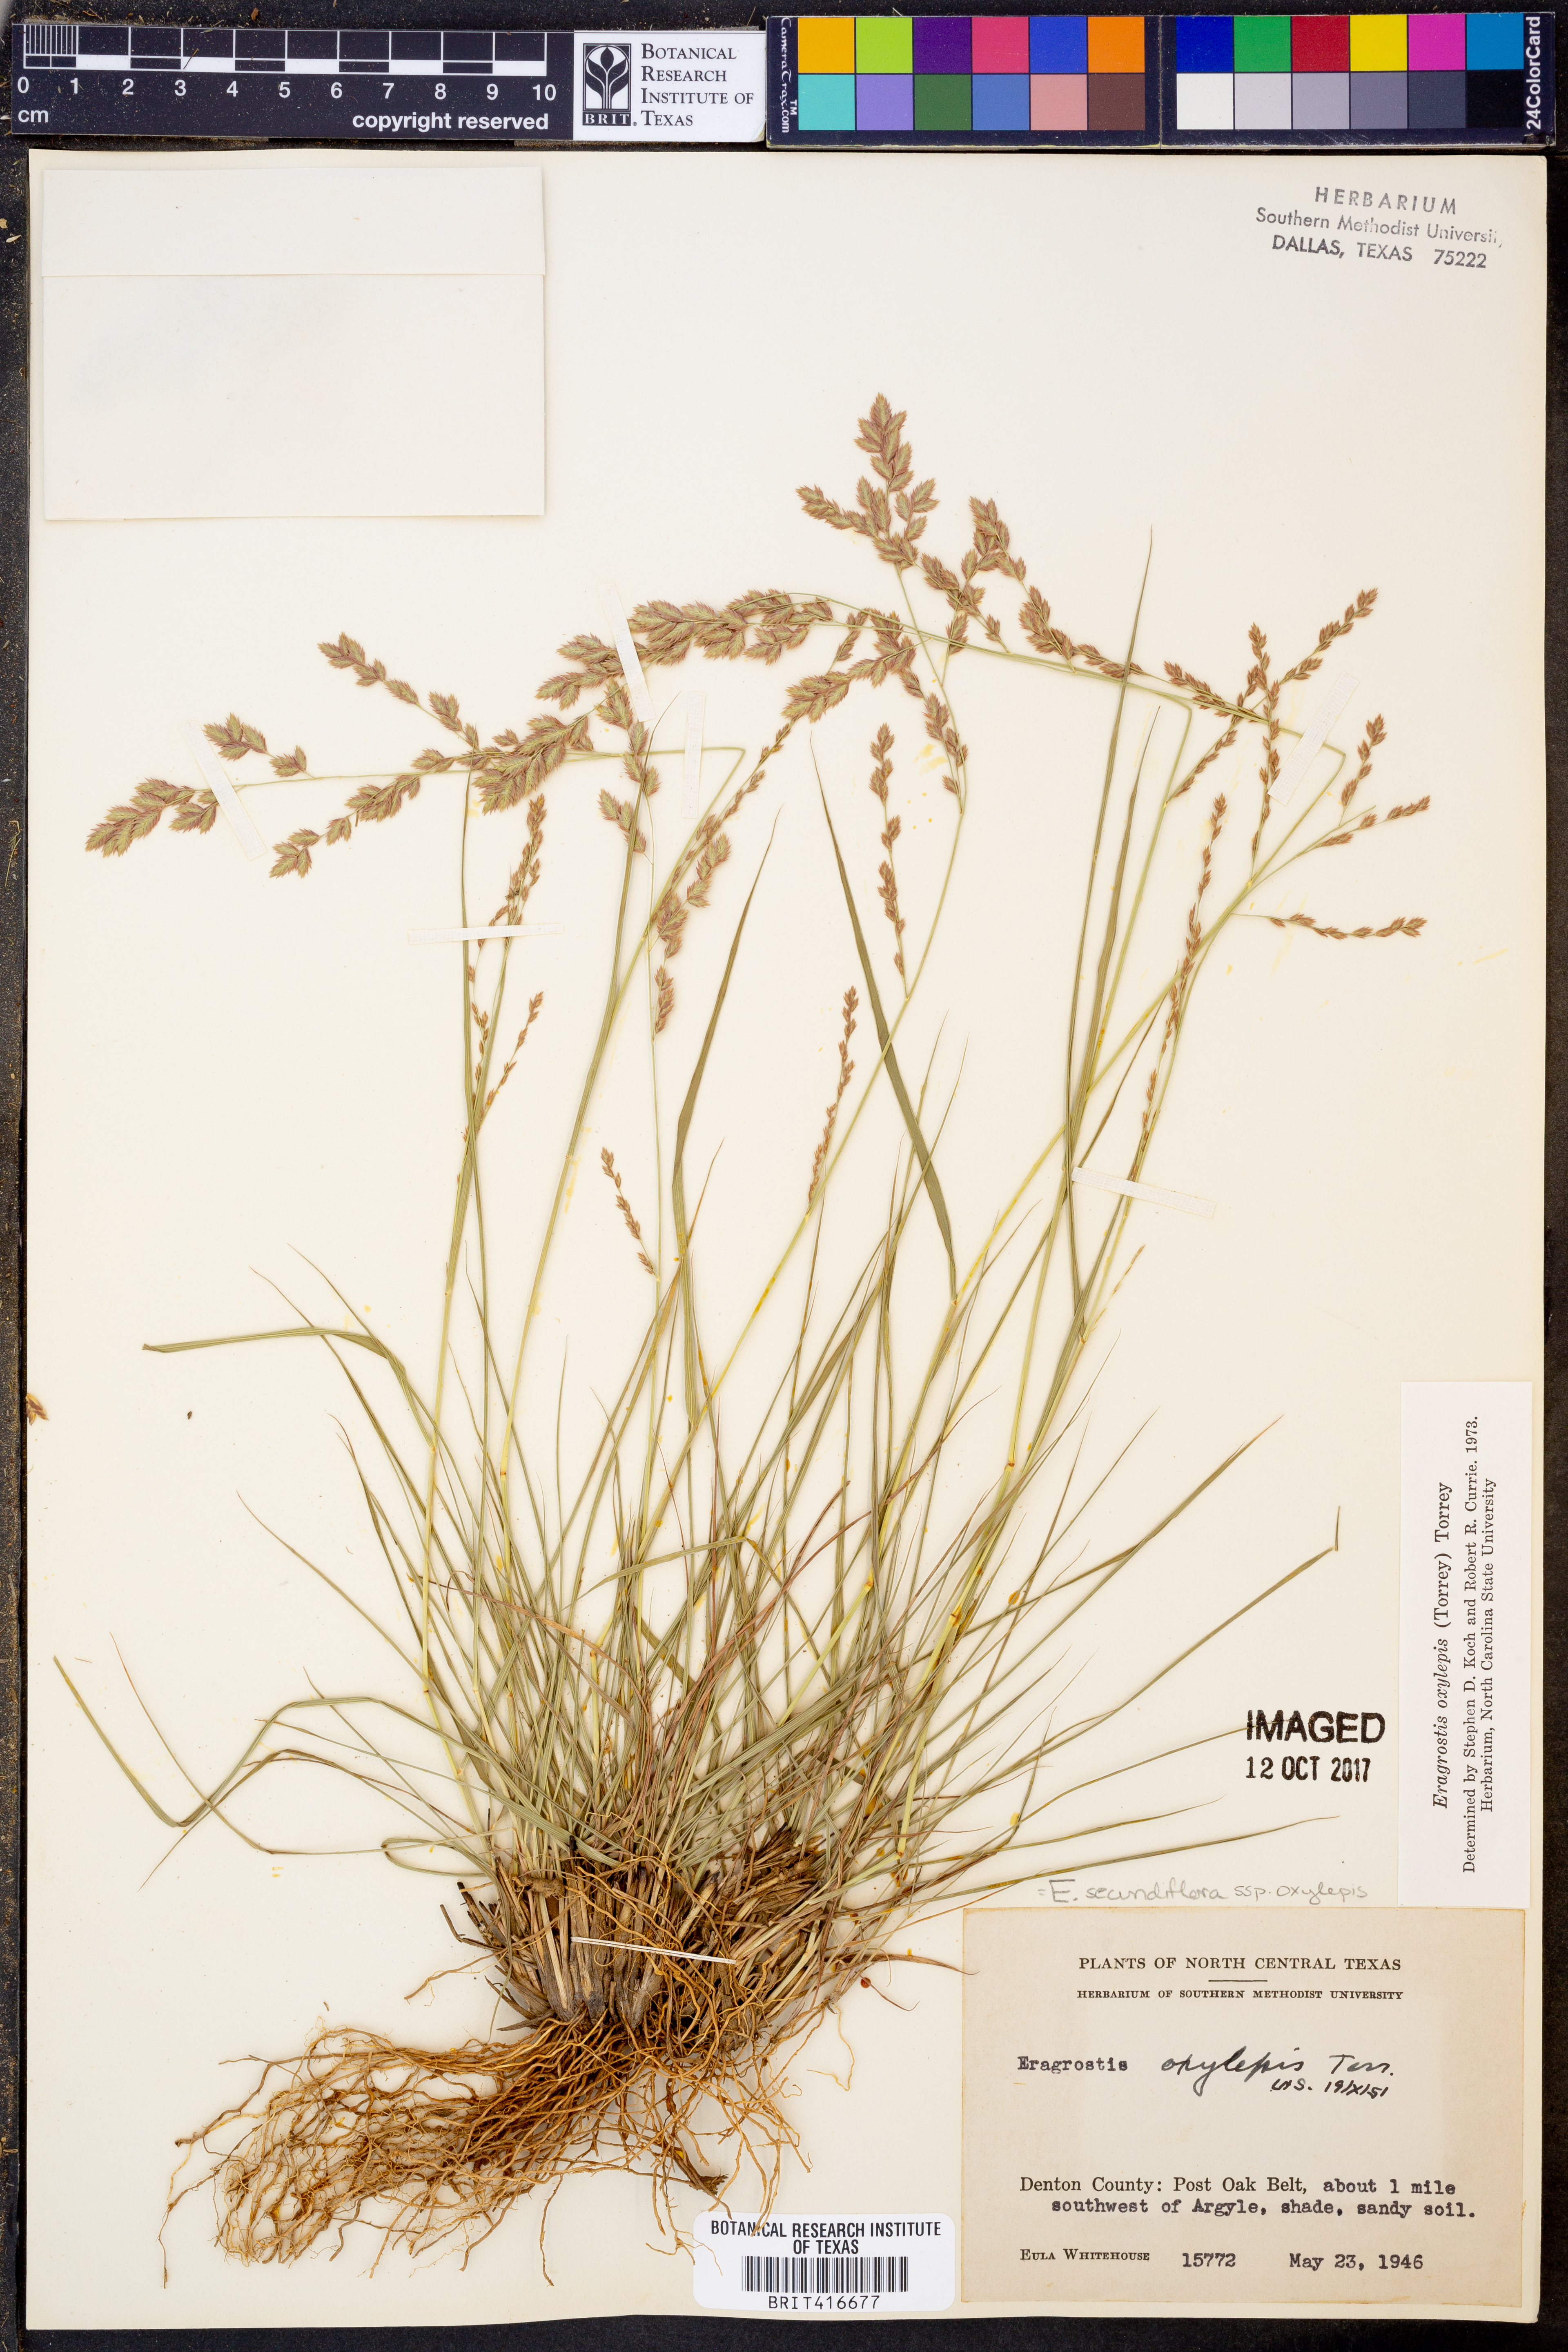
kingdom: Plantae
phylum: Tracheophyta
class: Liliopsida
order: Poales
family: Poaceae
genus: Eragrostis
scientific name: Eragrostis secundiflora
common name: Red love grass
